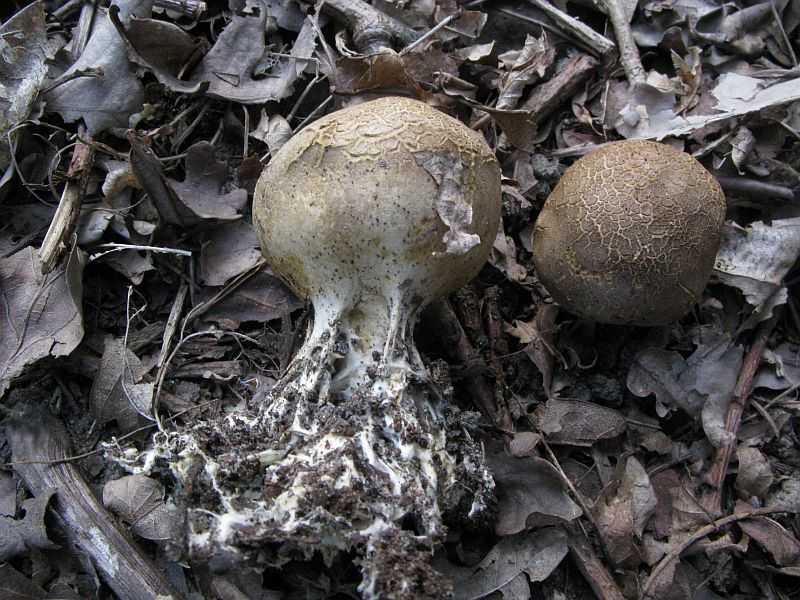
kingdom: Fungi
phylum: Basidiomycota
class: Agaricomycetes
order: Boletales
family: Sclerodermataceae
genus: Scleroderma
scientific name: Scleroderma verrucosum
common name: stilket bruskbold
